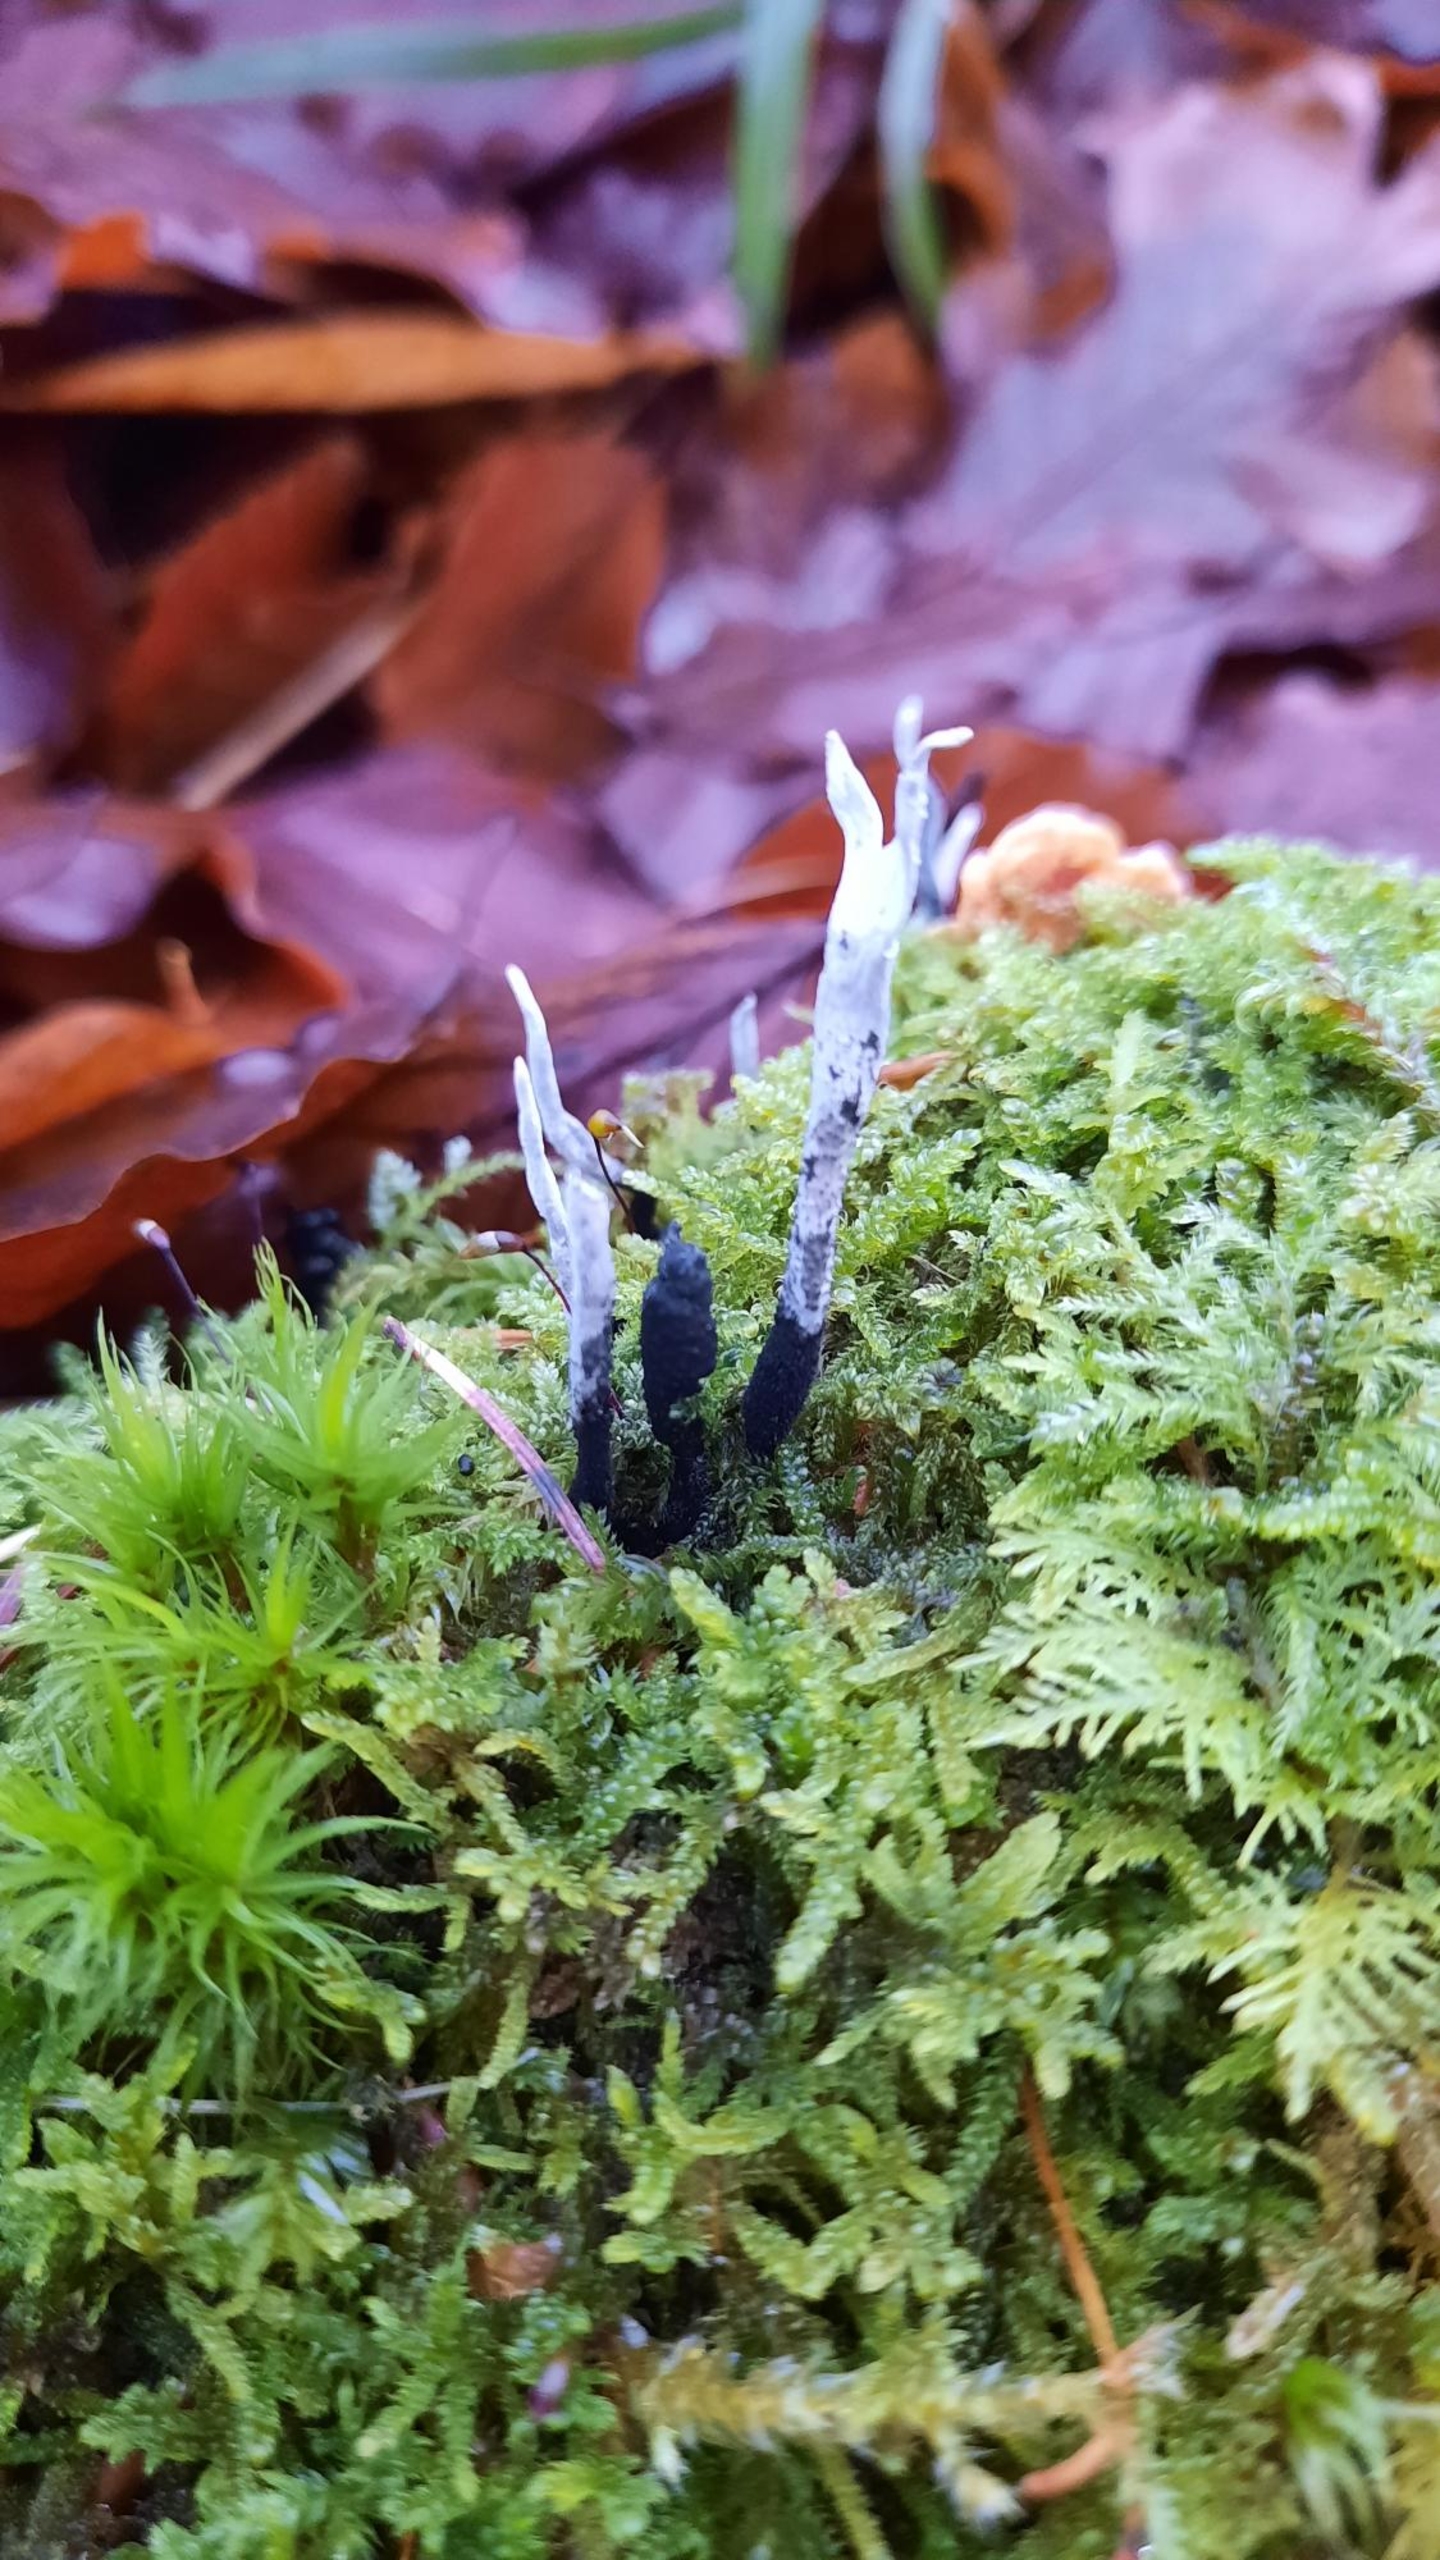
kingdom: Fungi
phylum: Ascomycota
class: Sordariomycetes
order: Xylariales
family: Xylariaceae
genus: Xylaria
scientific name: Xylaria hypoxylon
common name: Grenet stødsvamp
